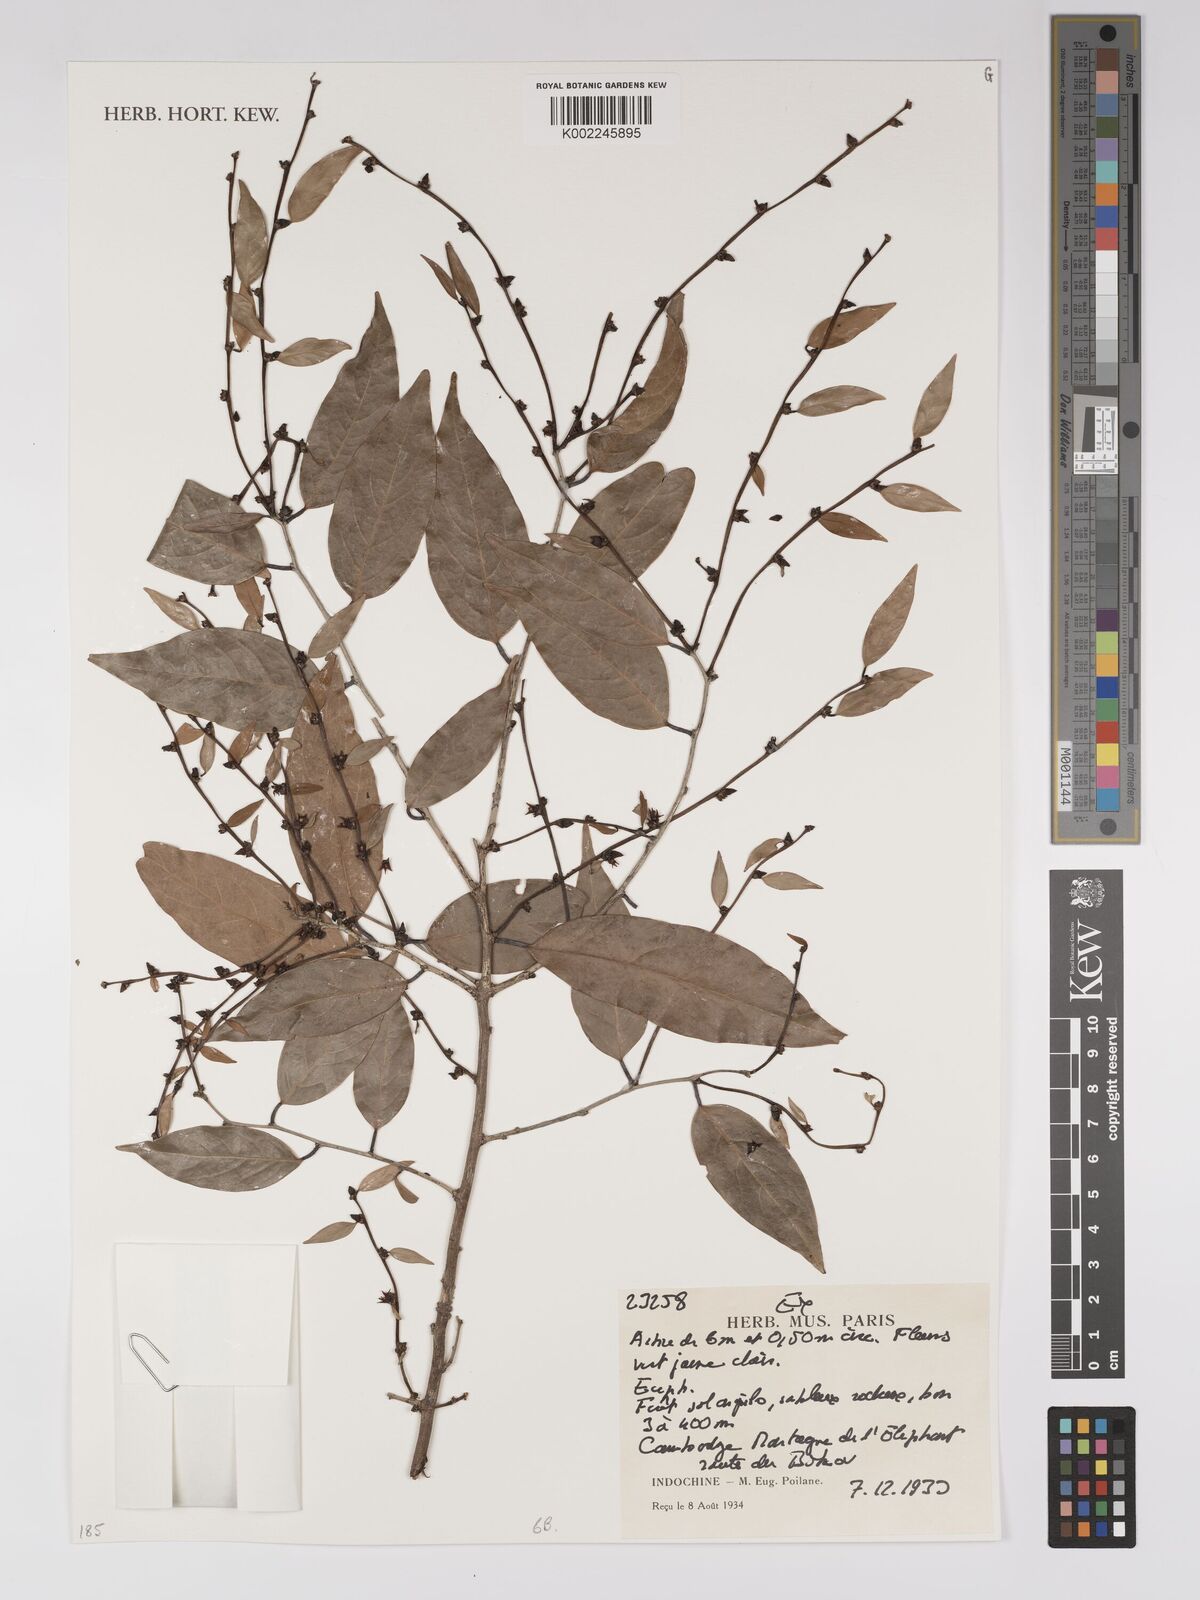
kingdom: Plantae
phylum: Tracheophyta
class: Magnoliopsida
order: Malpighiales
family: Euphorbiaceae
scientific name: Euphorbiaceae
